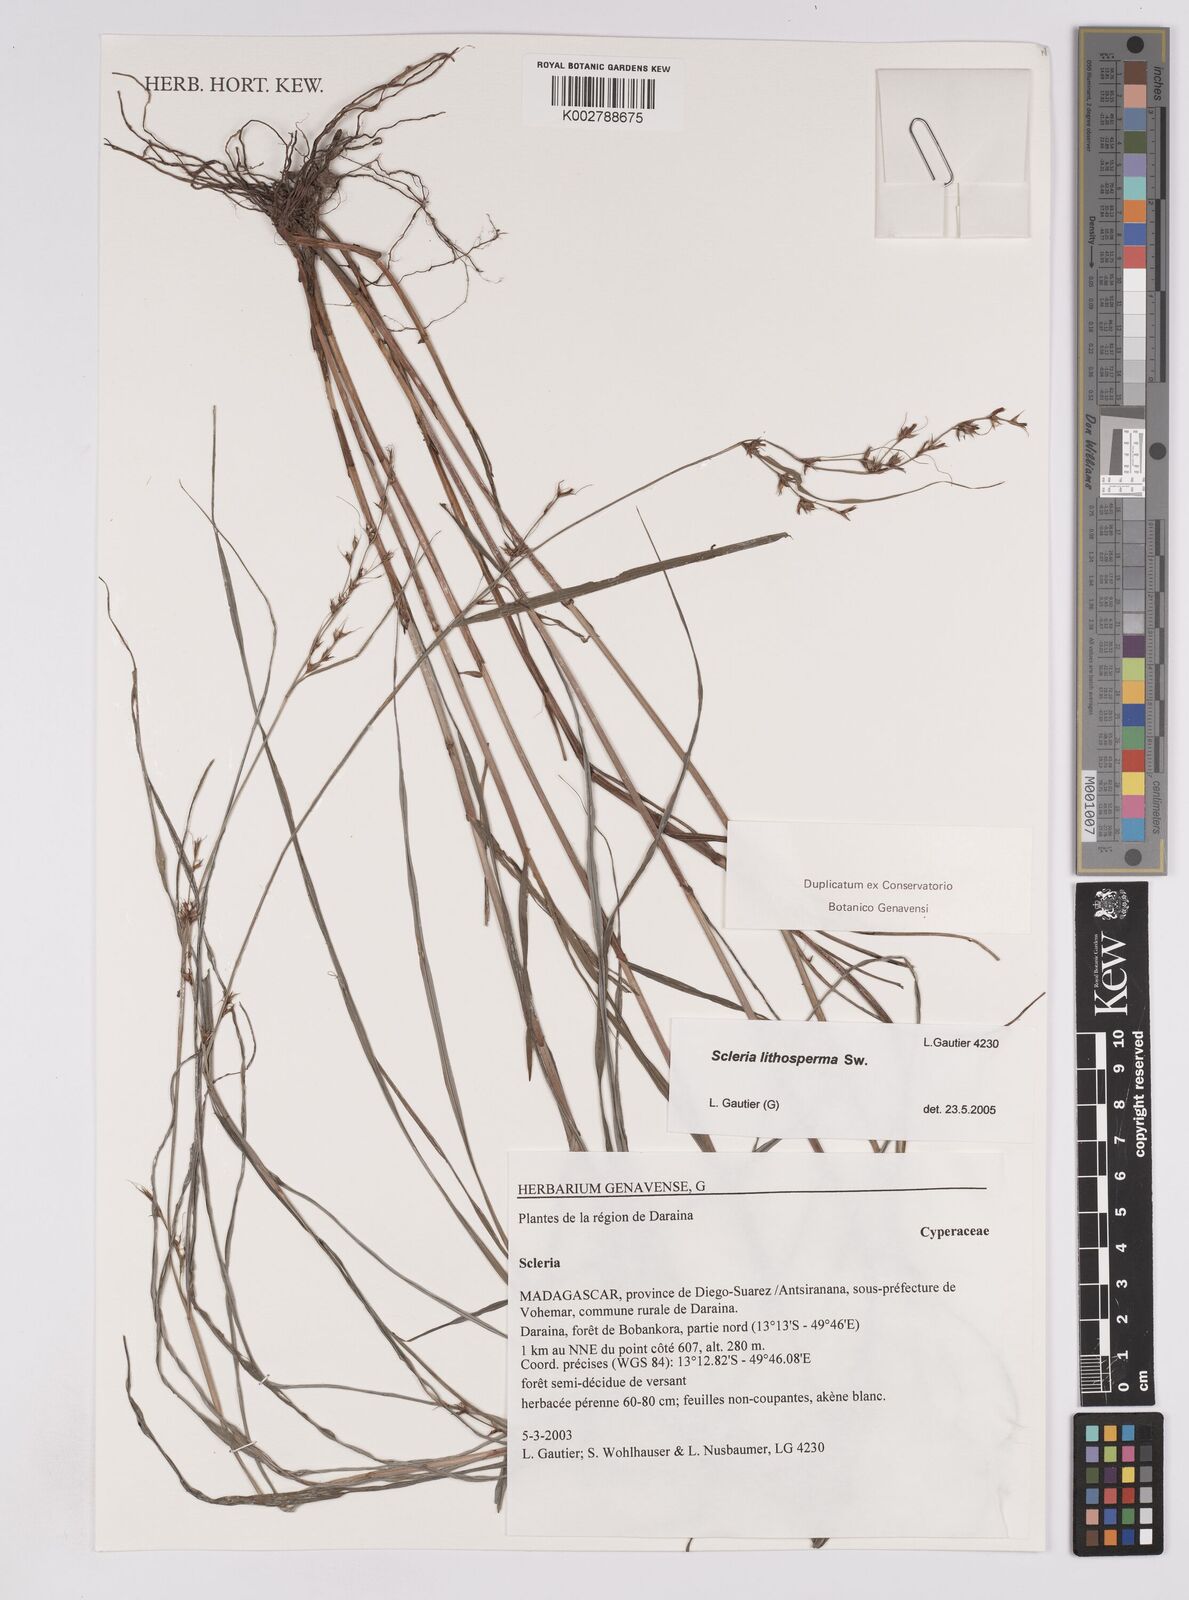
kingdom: Plantae
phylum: Tracheophyta
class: Liliopsida
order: Poales
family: Cyperaceae
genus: Scleria
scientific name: Scleria lithosperma
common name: Florida keys nut-rush
